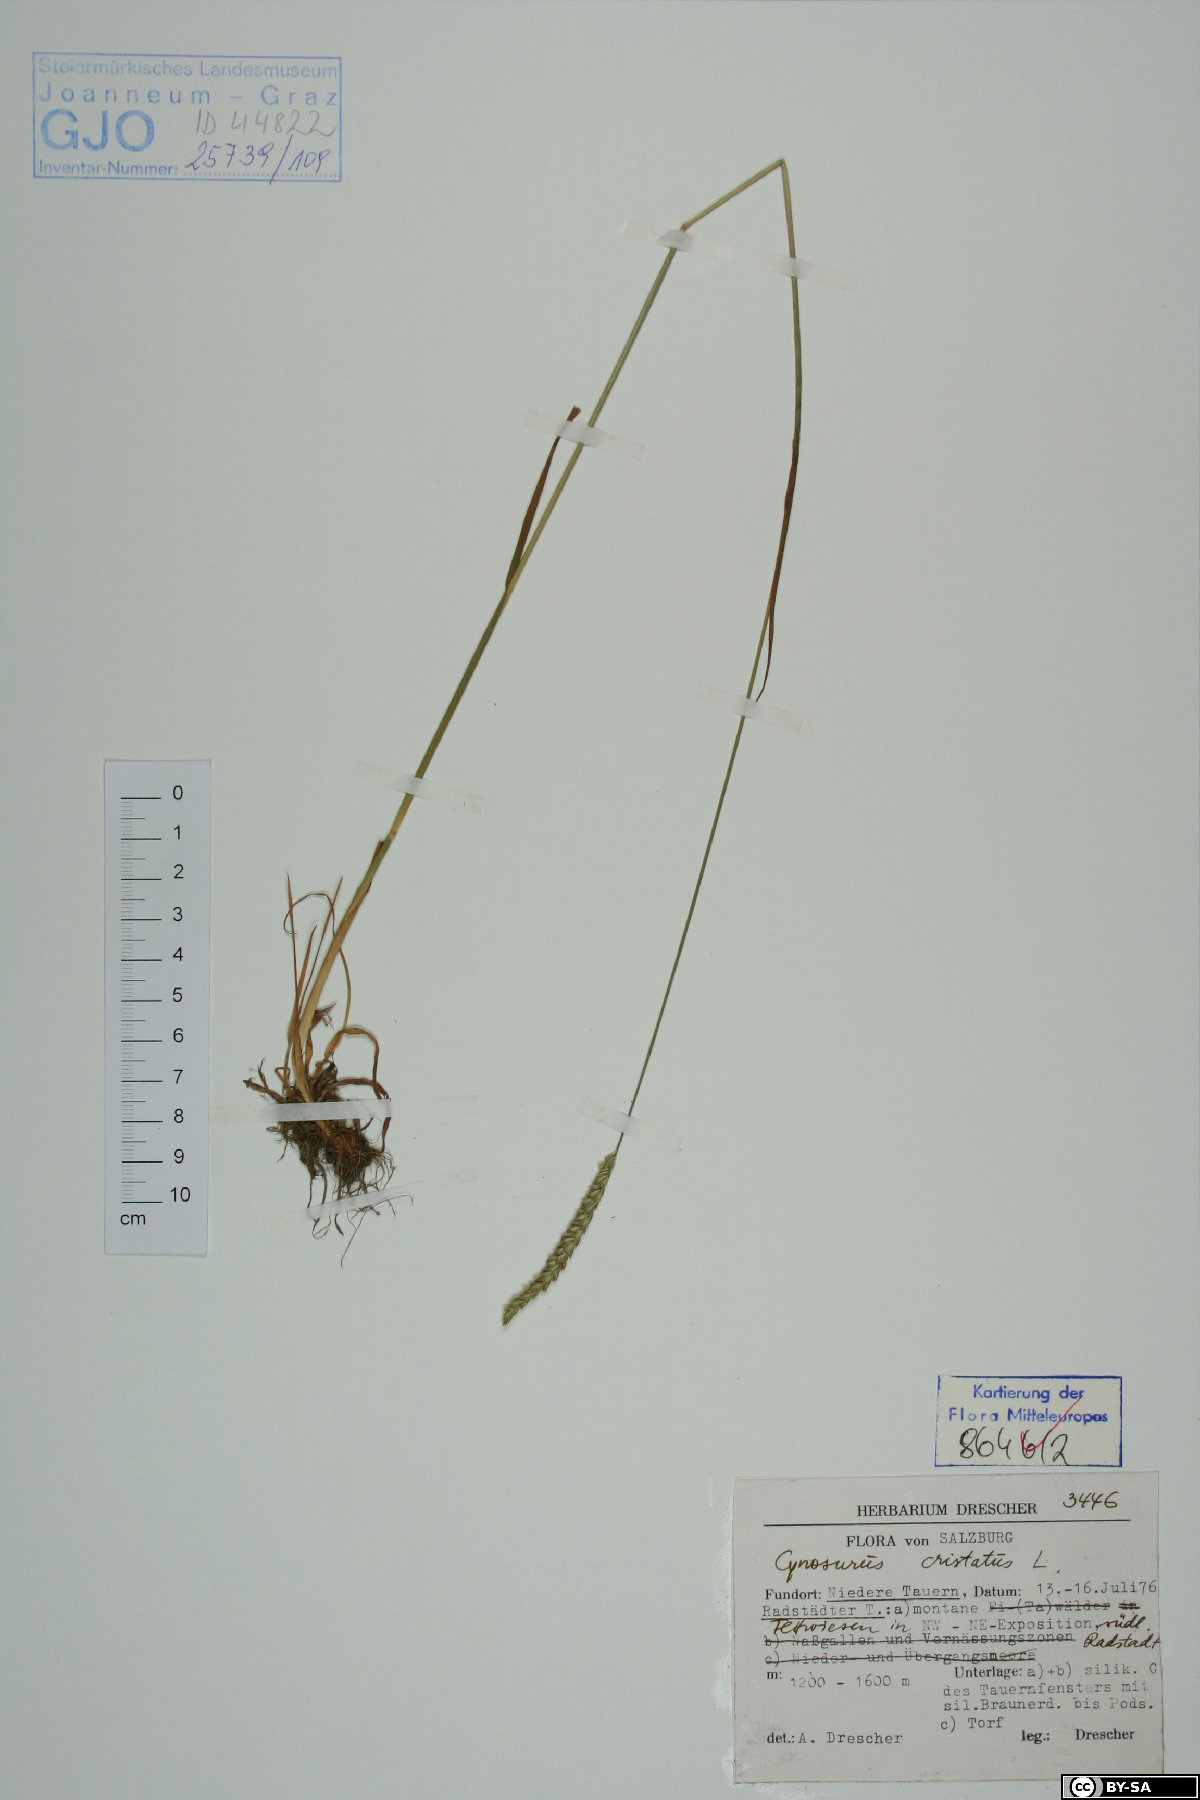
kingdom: Plantae
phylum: Tracheophyta
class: Liliopsida
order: Poales
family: Poaceae
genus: Cynosurus
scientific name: Cynosurus cristatus
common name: Crested dog's-tail
